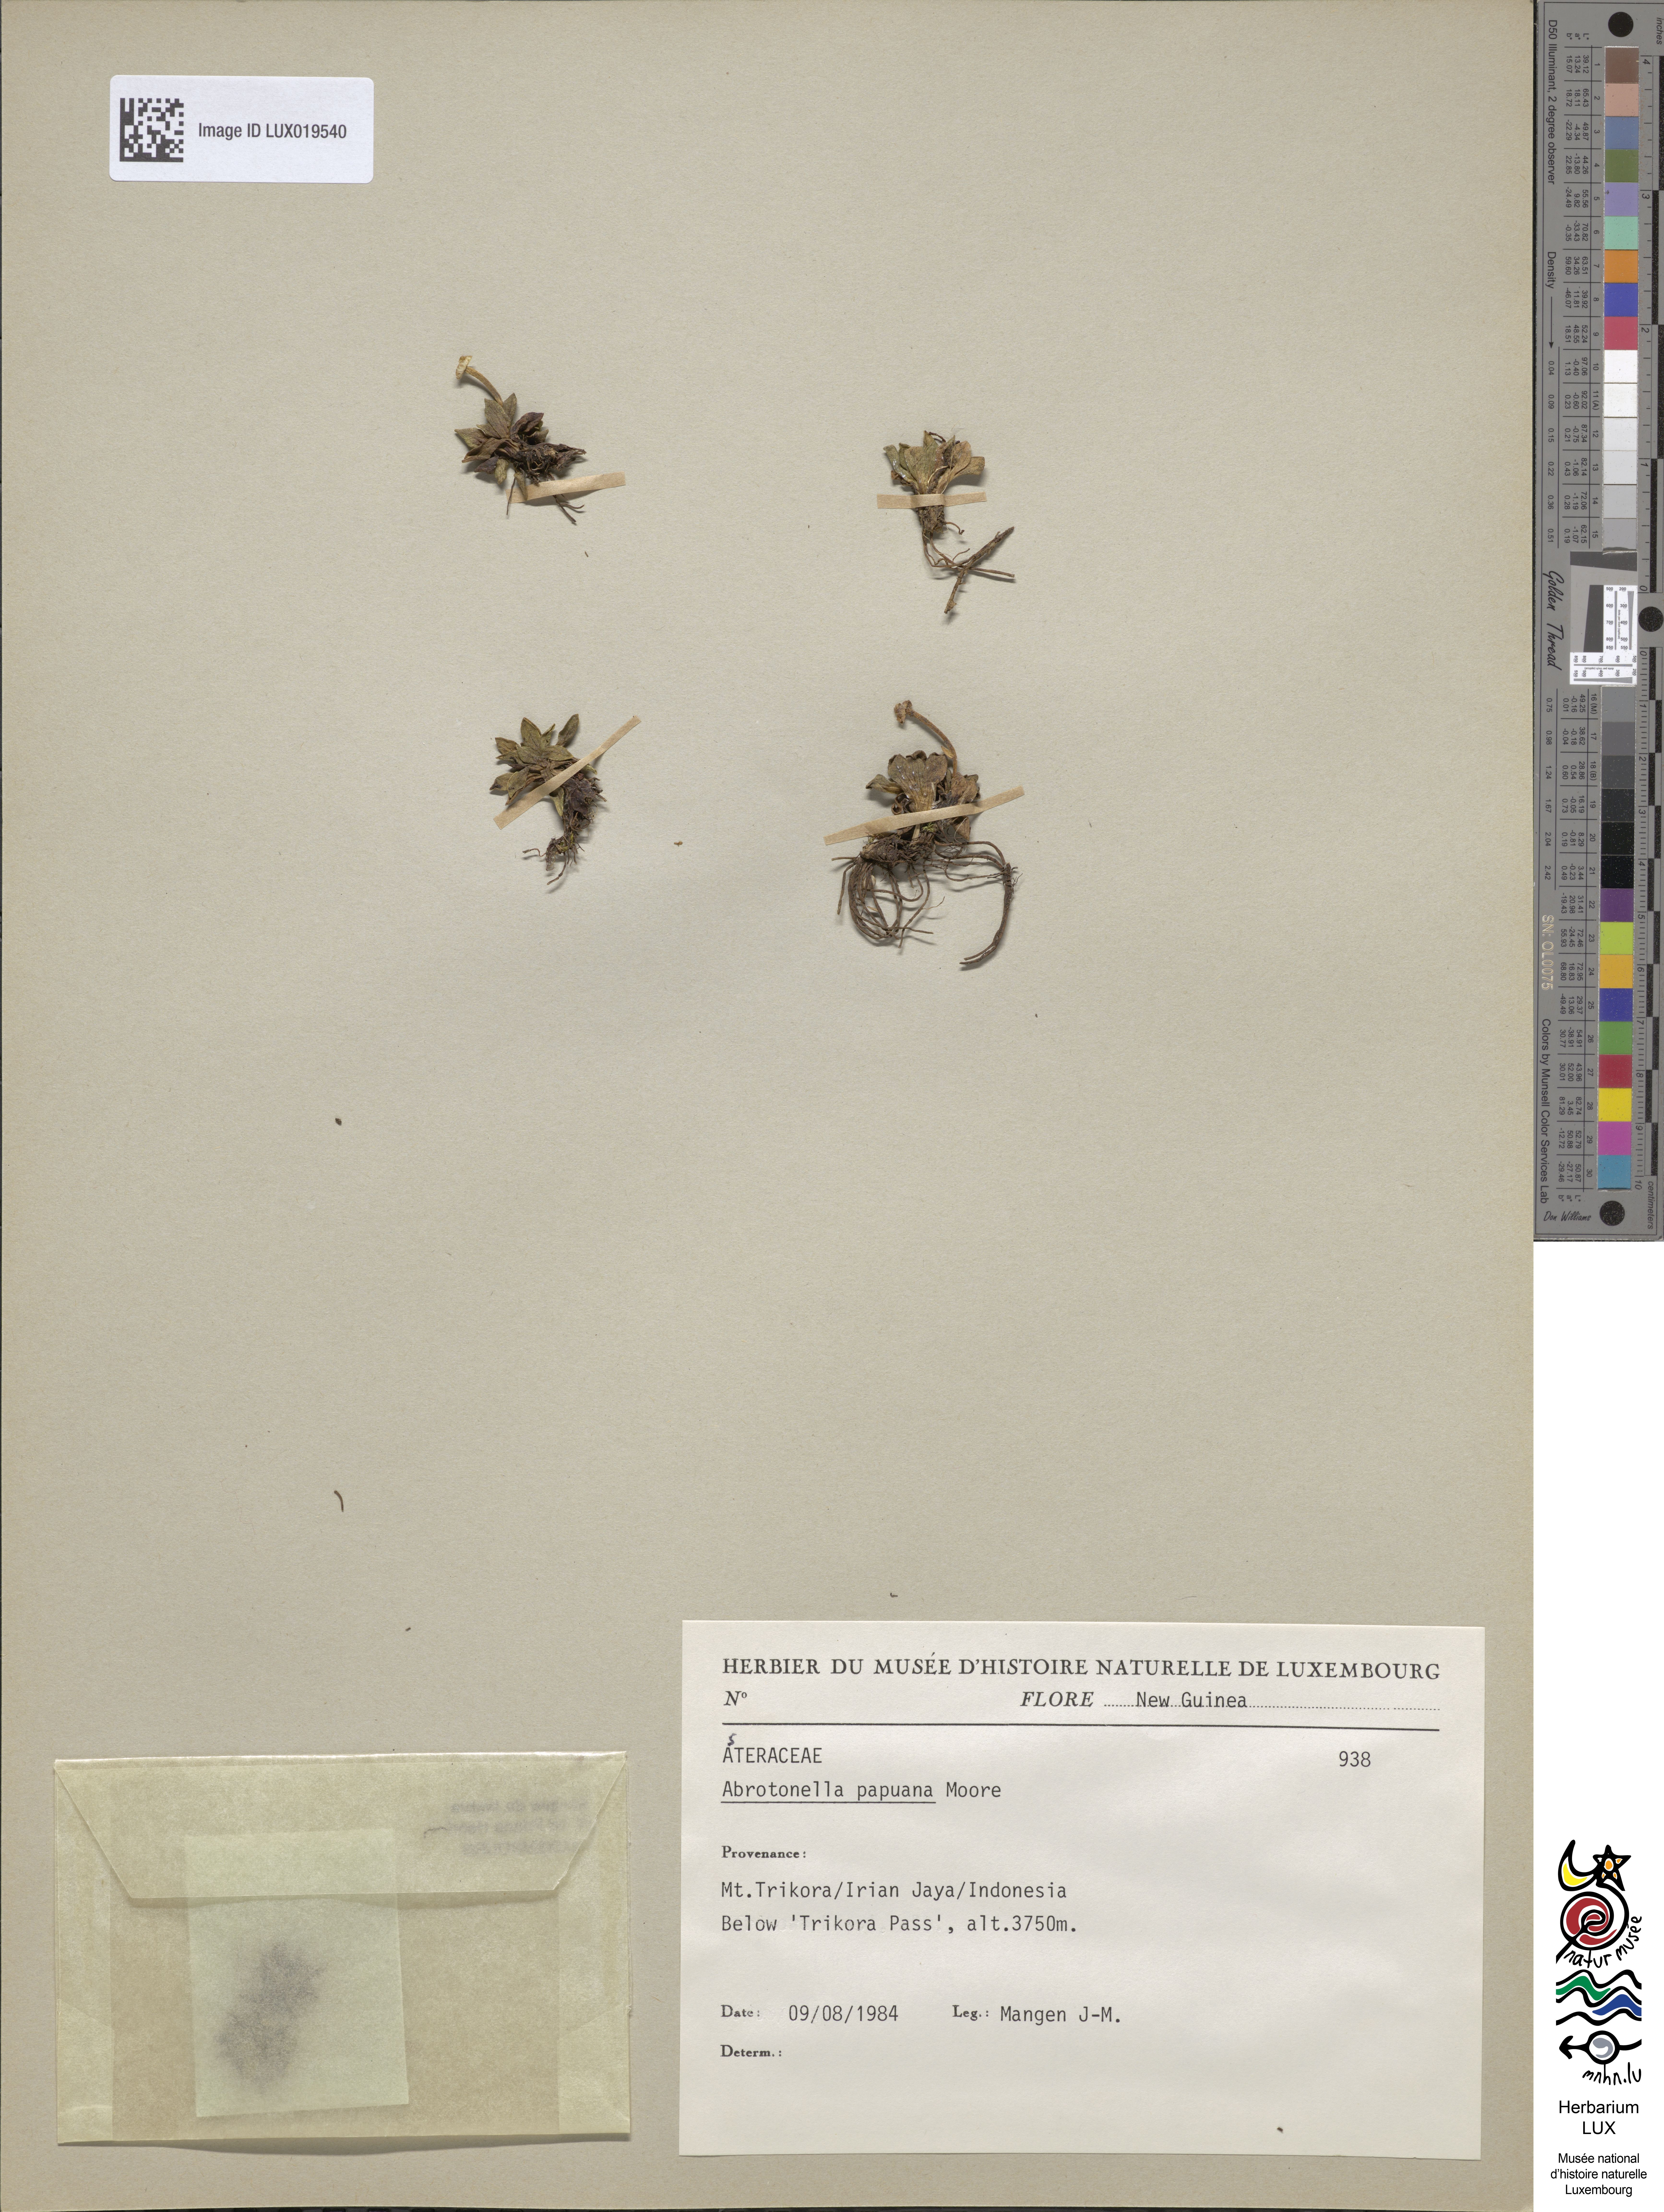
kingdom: Plantae
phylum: Tracheophyta
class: Magnoliopsida
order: Asterales
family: Asteraceae
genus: Abrotanella
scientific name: Abrotanella papuana
